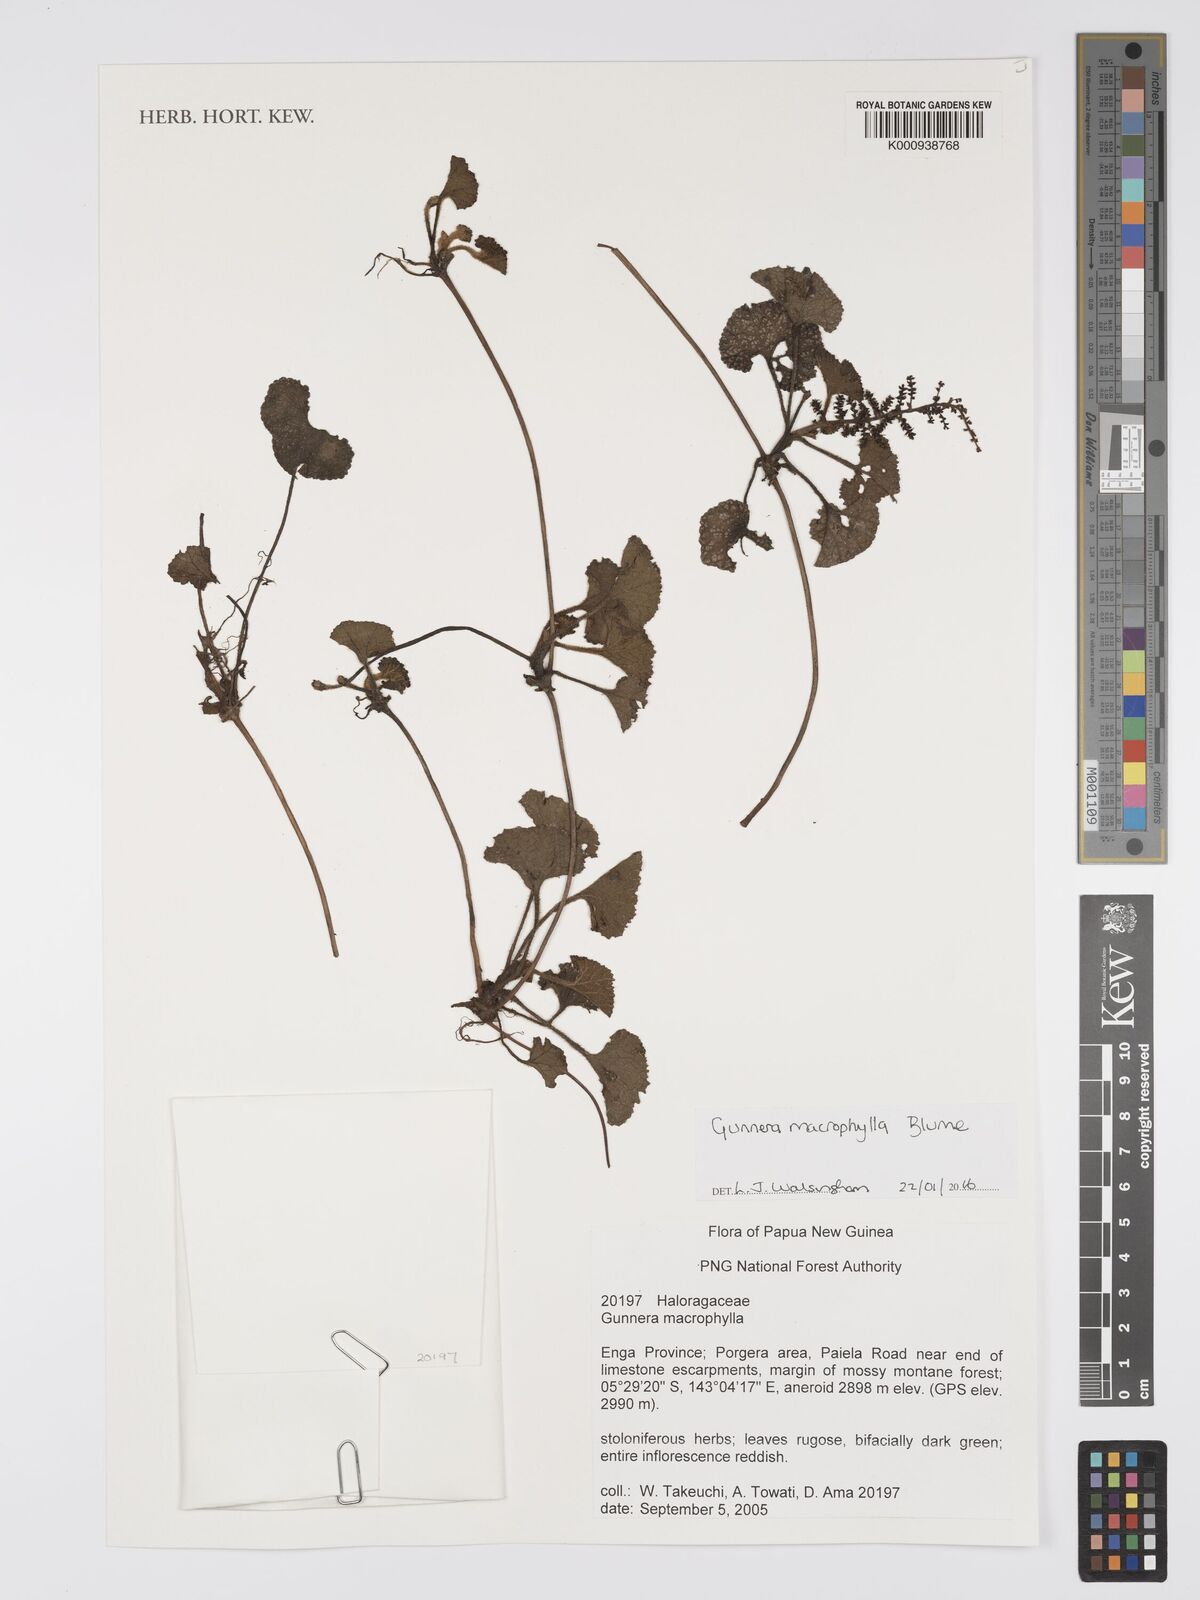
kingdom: Plantae
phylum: Tracheophyta
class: Magnoliopsida
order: Gunnerales
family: Gunneraceae
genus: Gunnera
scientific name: Gunnera macrophylla
